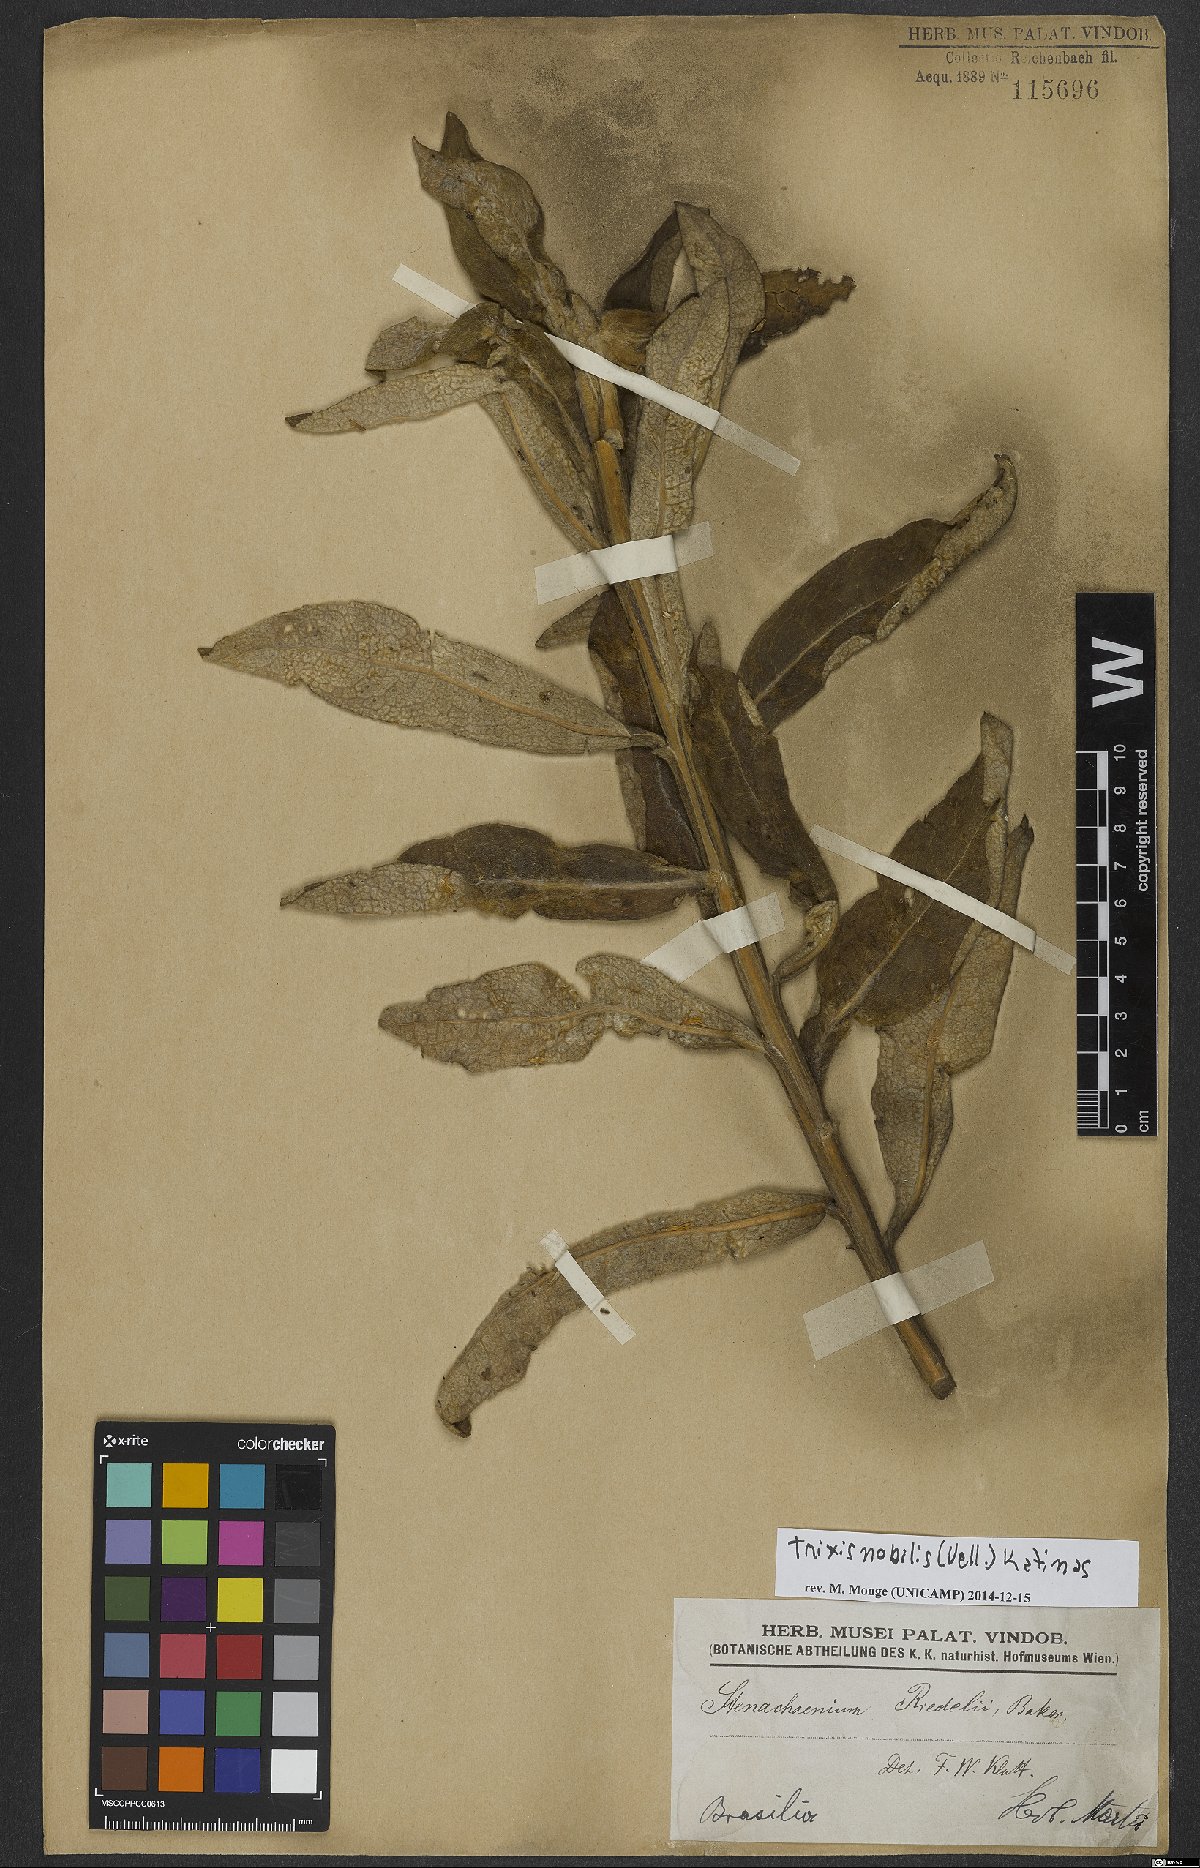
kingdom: Plantae
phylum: Tracheophyta
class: Magnoliopsida
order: Asterales
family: Asteraceae
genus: Trixis
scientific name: Trixis nobilis
